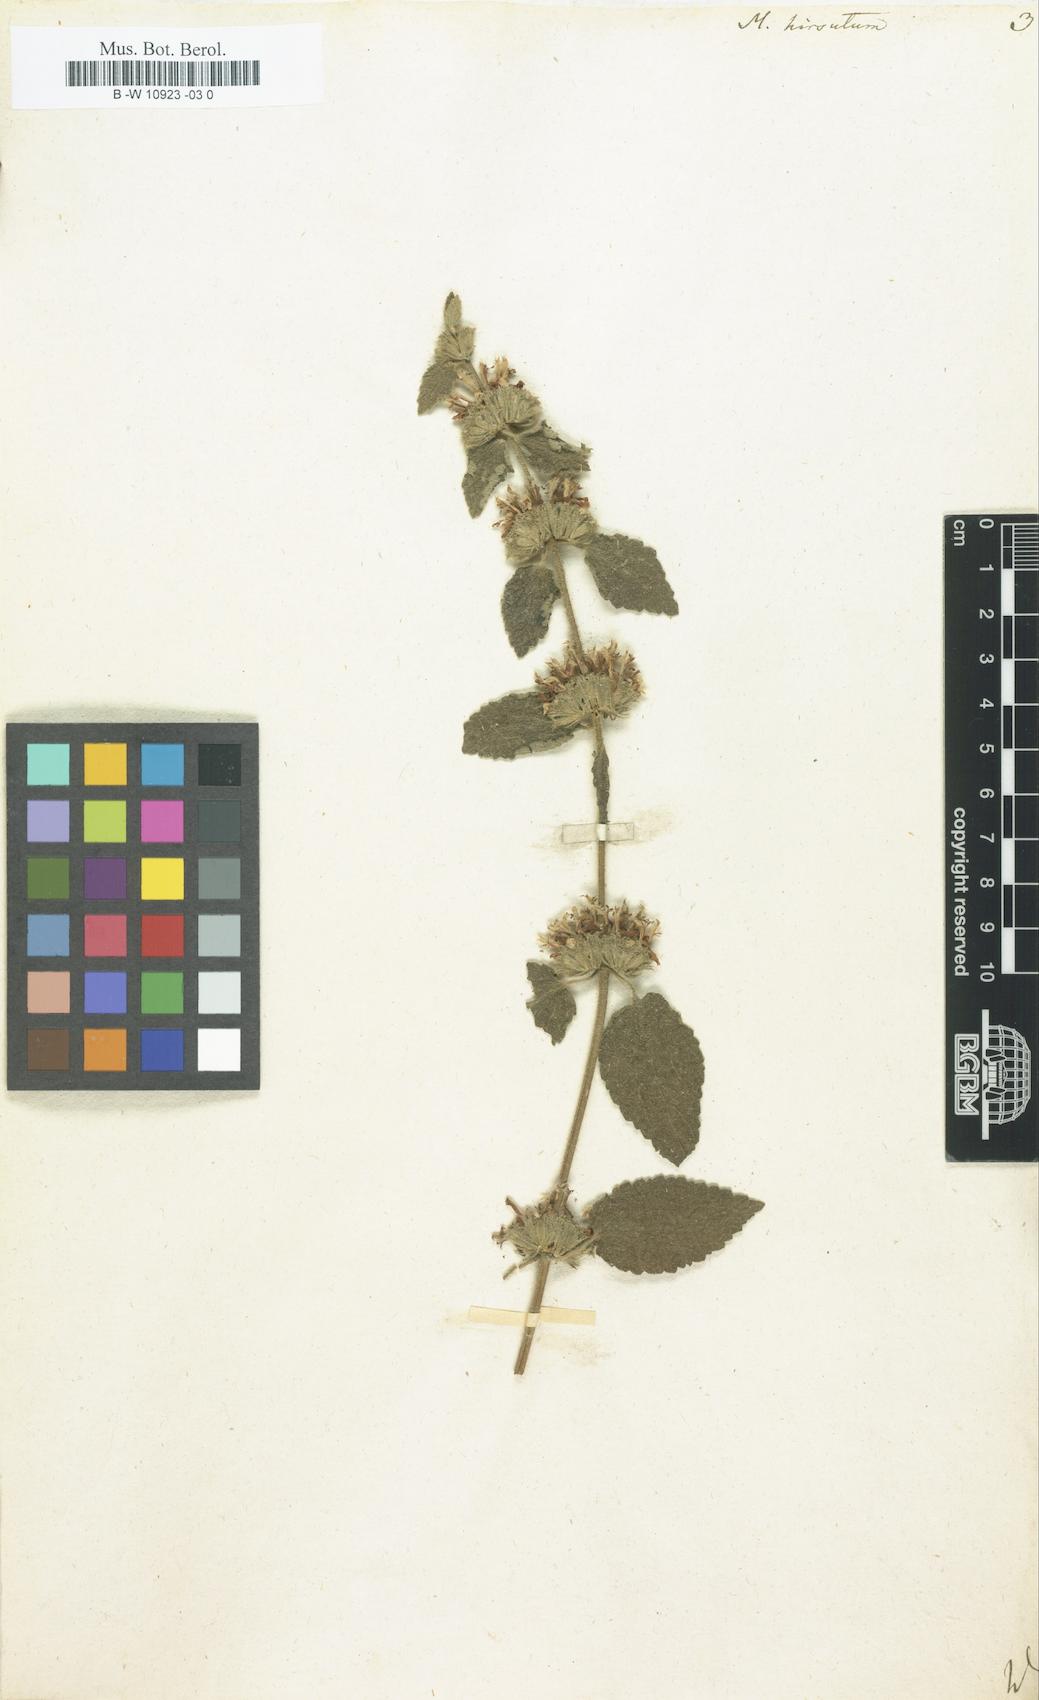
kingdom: Plantae
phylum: Tracheophyta
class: Magnoliopsida
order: Lamiales
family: Lamiaceae
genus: Pseudodictamnus
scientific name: Pseudodictamnus hirsutus
